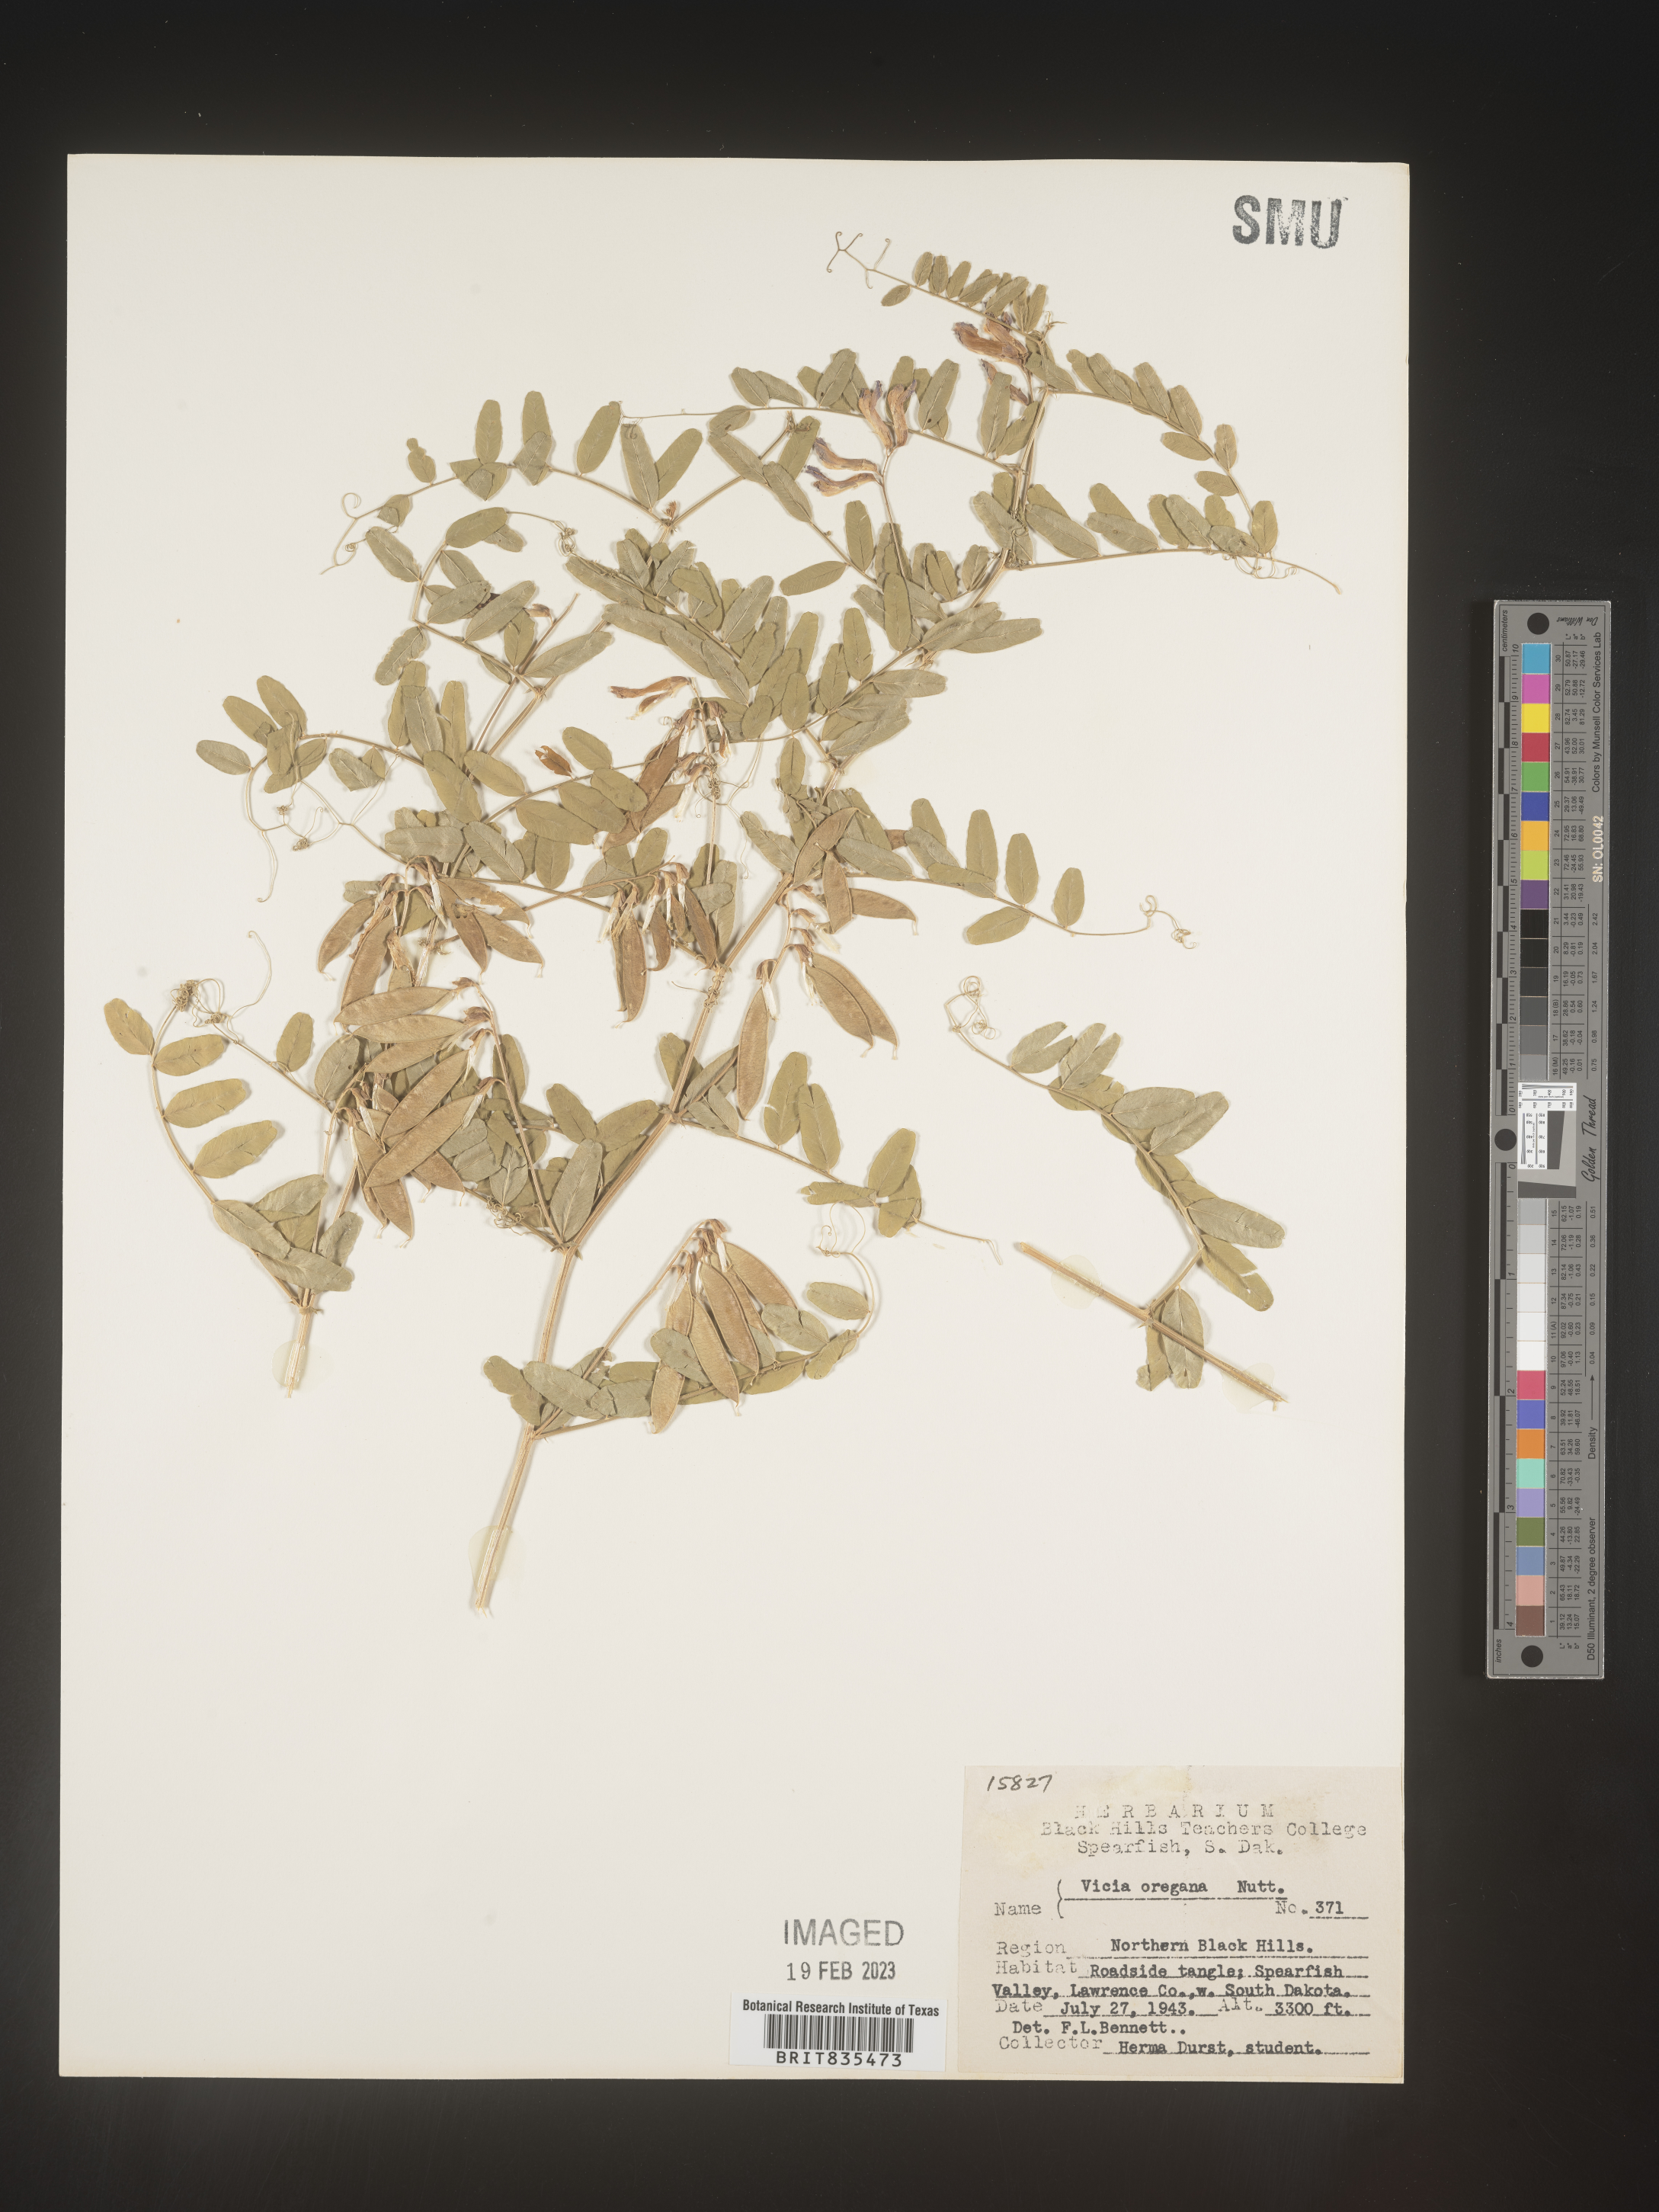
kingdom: Plantae
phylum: Tracheophyta
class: Magnoliopsida
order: Fabales
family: Fabaceae
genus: Vicia
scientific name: Vicia americana
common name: American vetch
